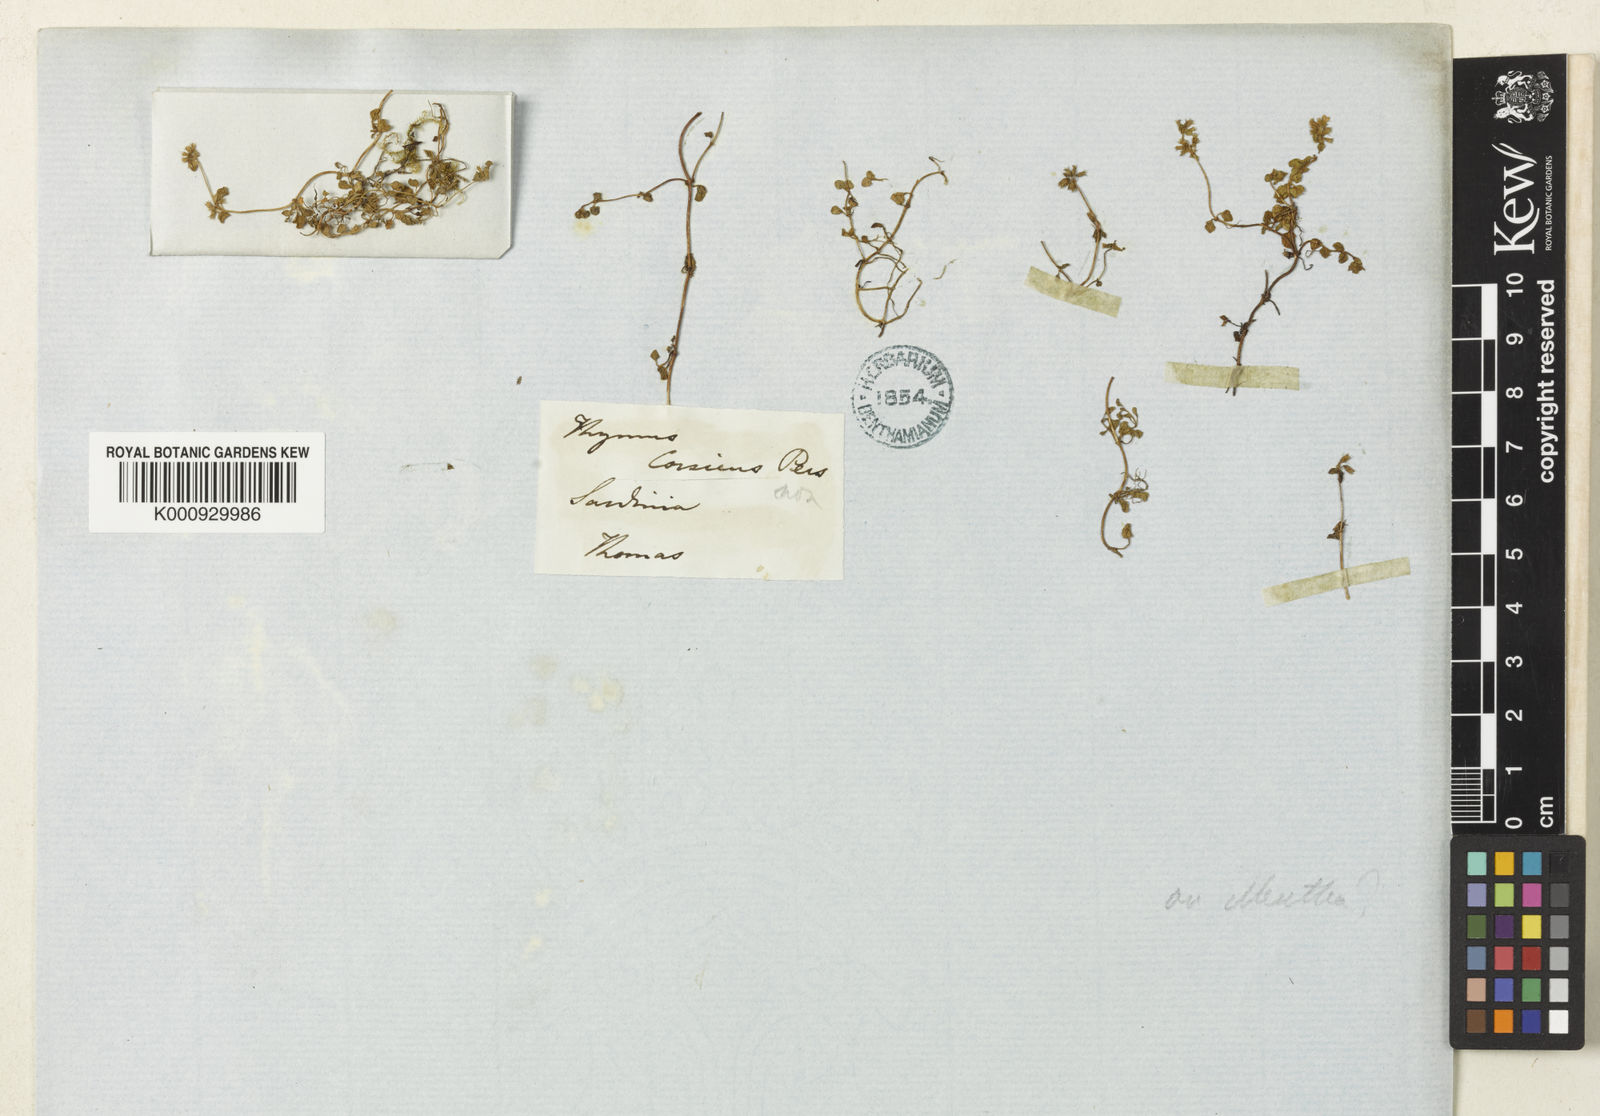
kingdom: Plantae
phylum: Tracheophyta
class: Magnoliopsida
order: Lamiales
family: Lamiaceae
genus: Mentha
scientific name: Mentha requienii
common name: Corsican mint
